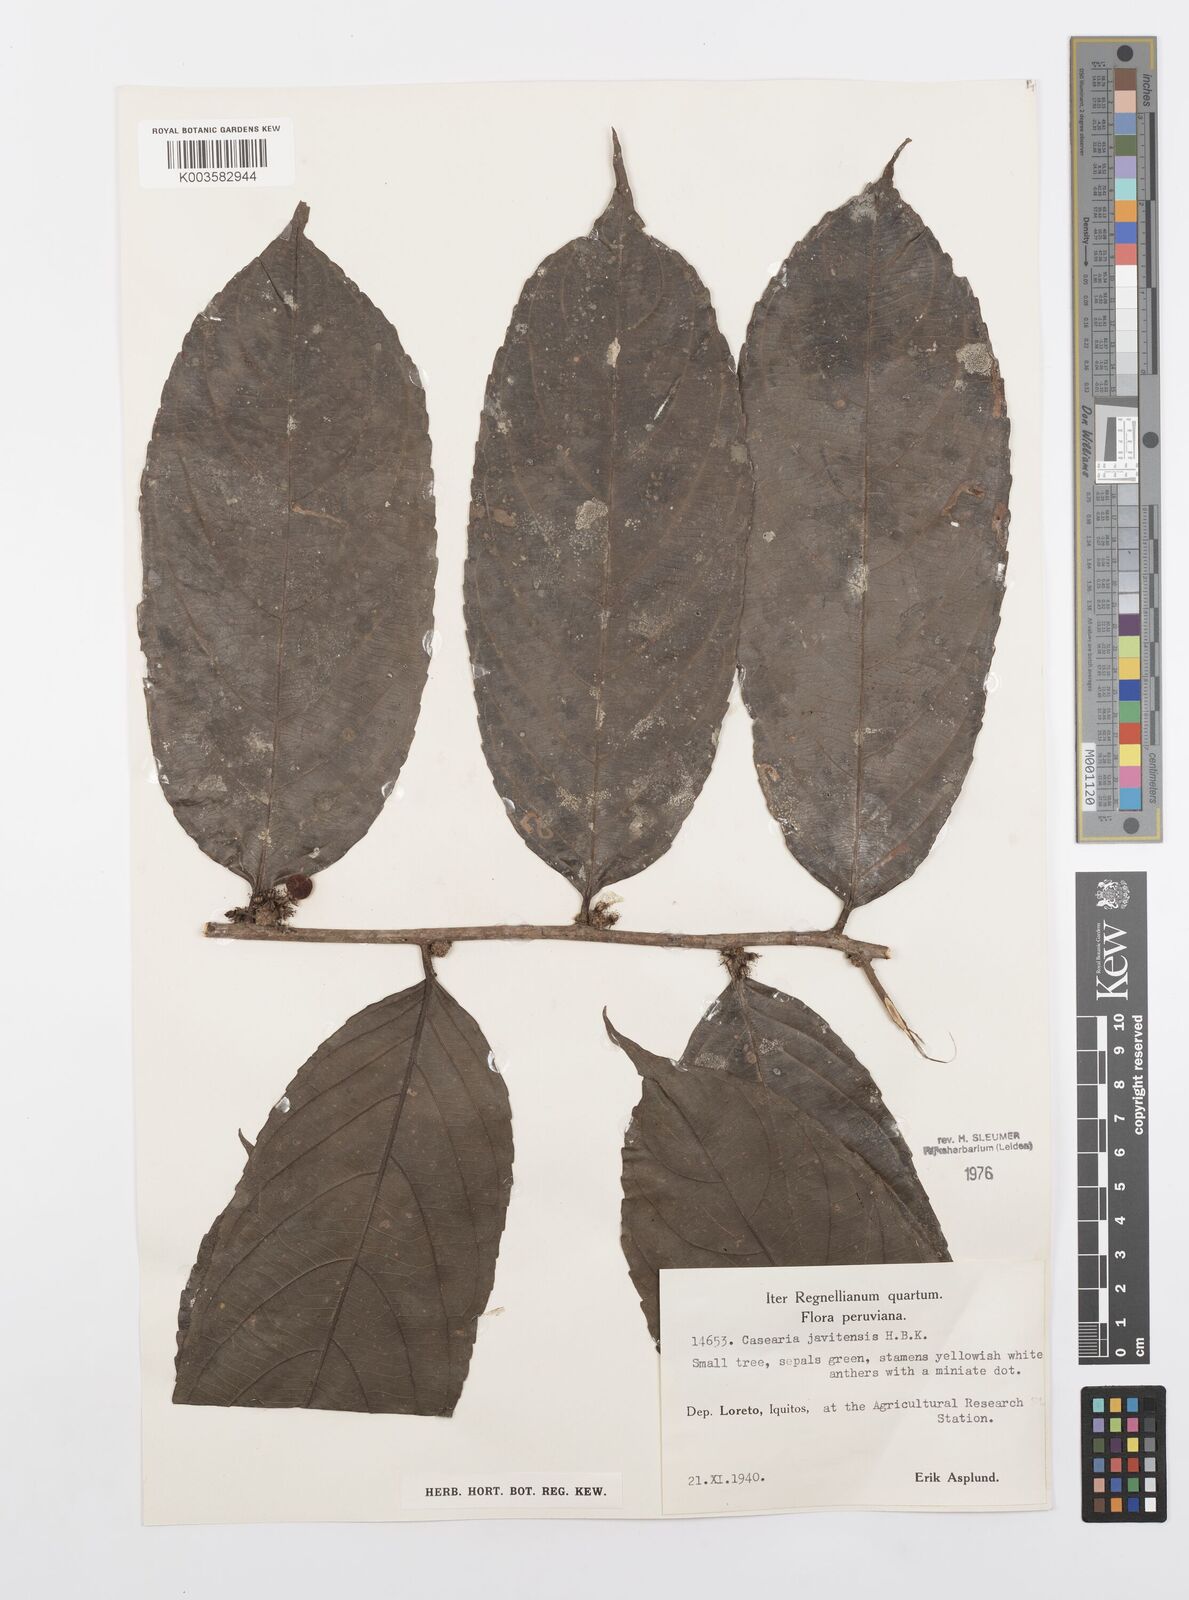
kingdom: Plantae
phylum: Tracheophyta
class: Magnoliopsida
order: Malpighiales
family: Salicaceae
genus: Piparea
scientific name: Piparea multiflora
